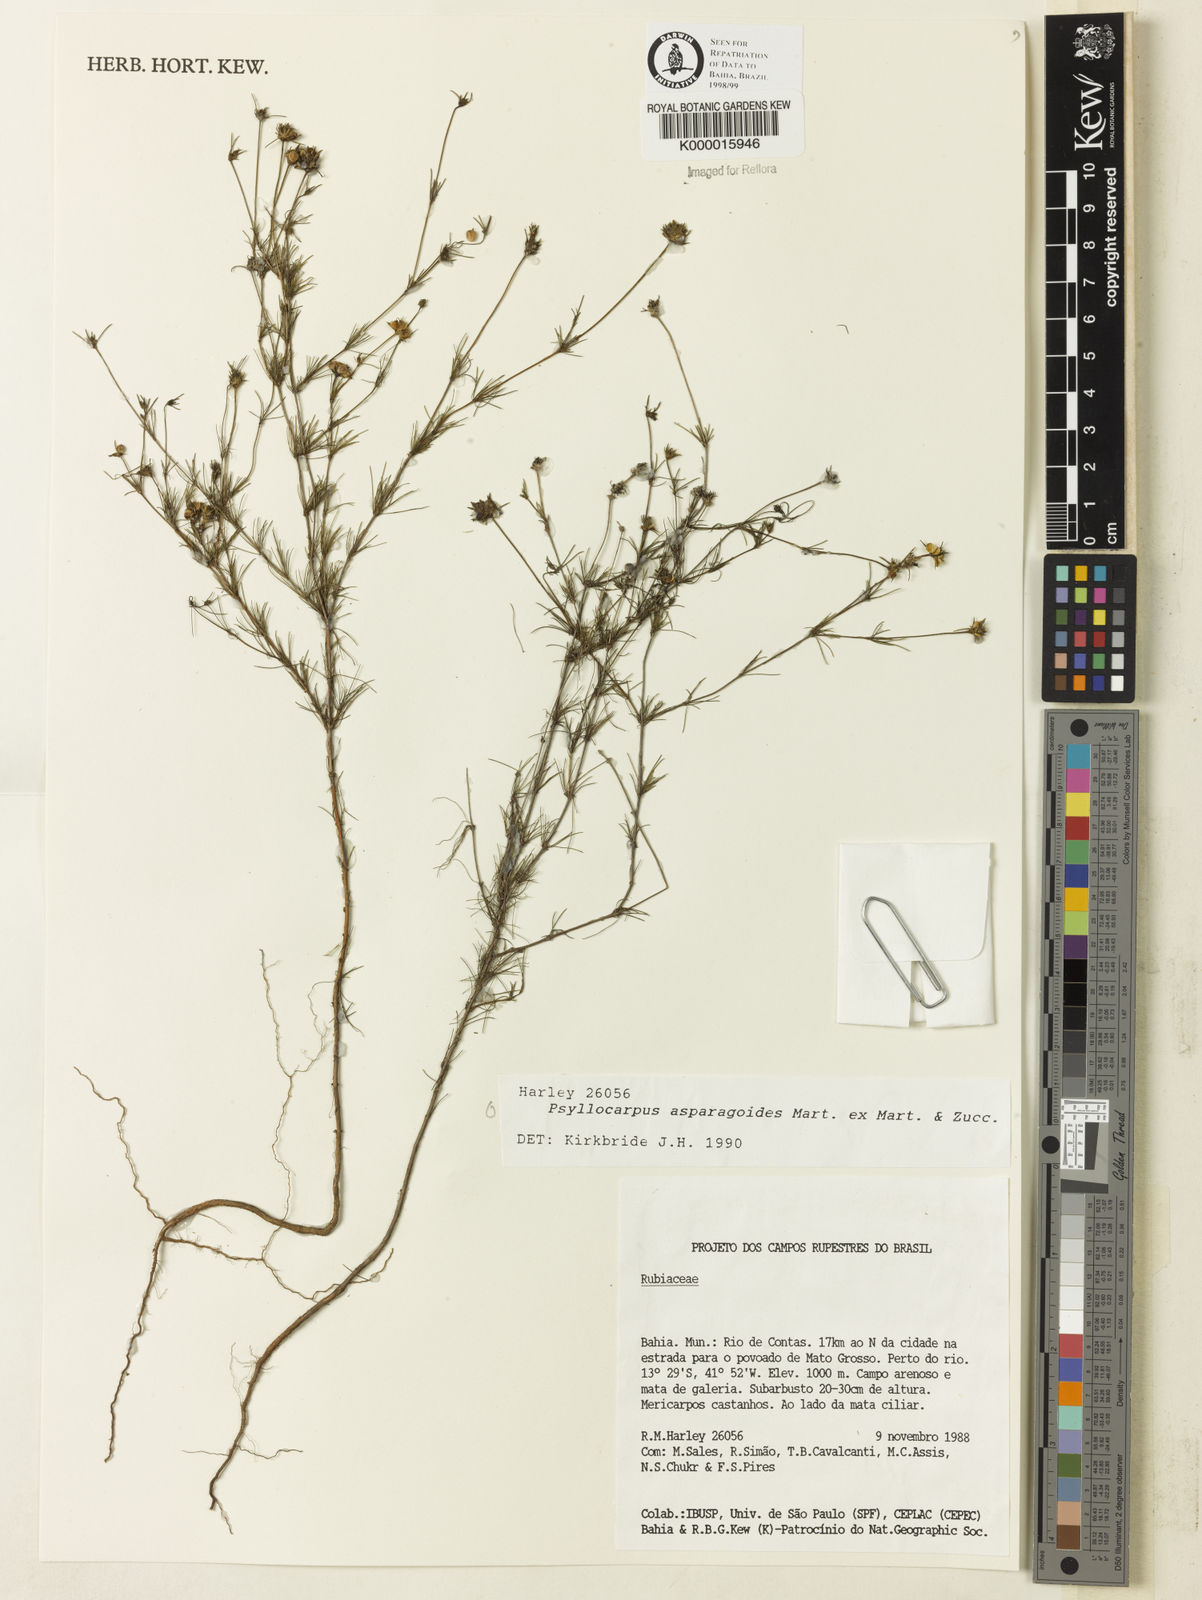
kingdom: Plantae
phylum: Tracheophyta
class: Magnoliopsida
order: Gentianales
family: Rubiaceae
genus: Psyllocarpus
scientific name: Psyllocarpus asparagoides
